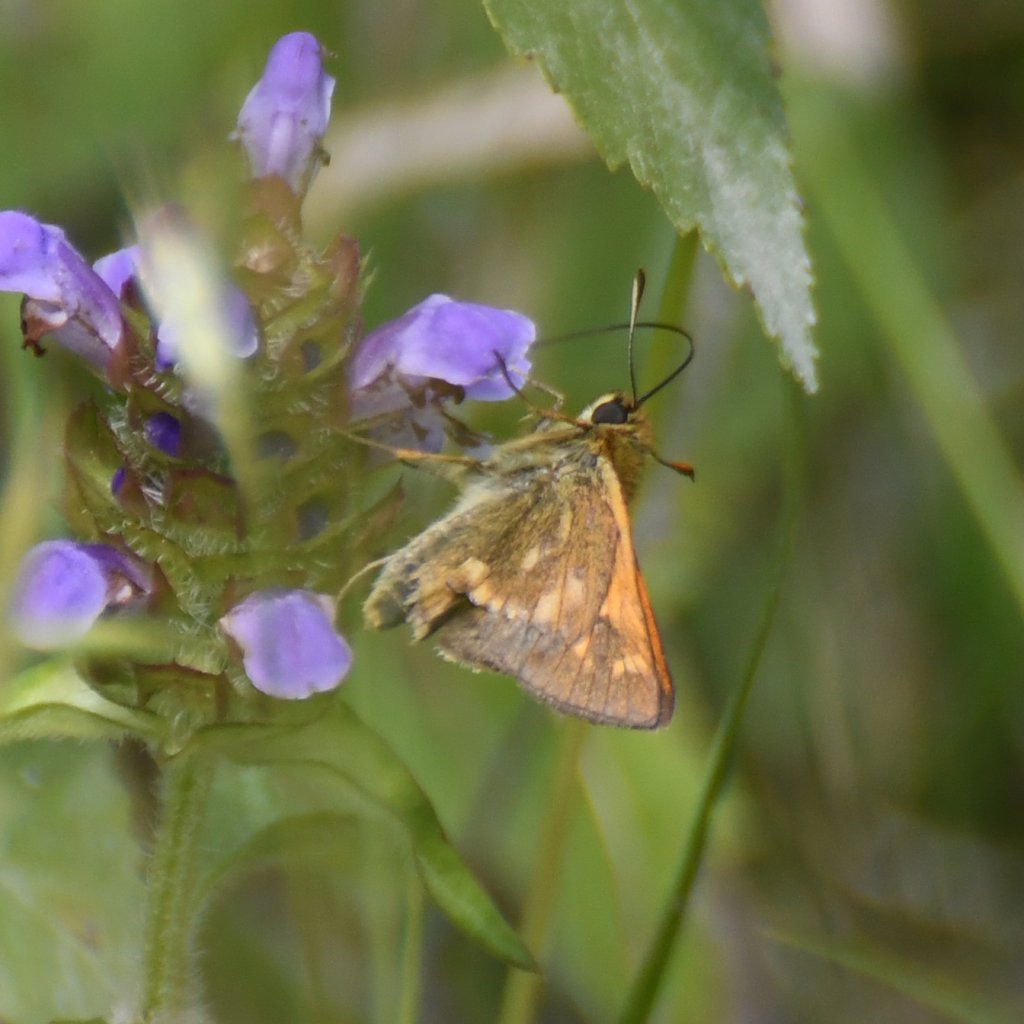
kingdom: Animalia
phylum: Arthropoda
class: Insecta
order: Lepidoptera
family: Hesperiidae
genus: Polites
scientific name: Polites
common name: Long Dash Skipper
